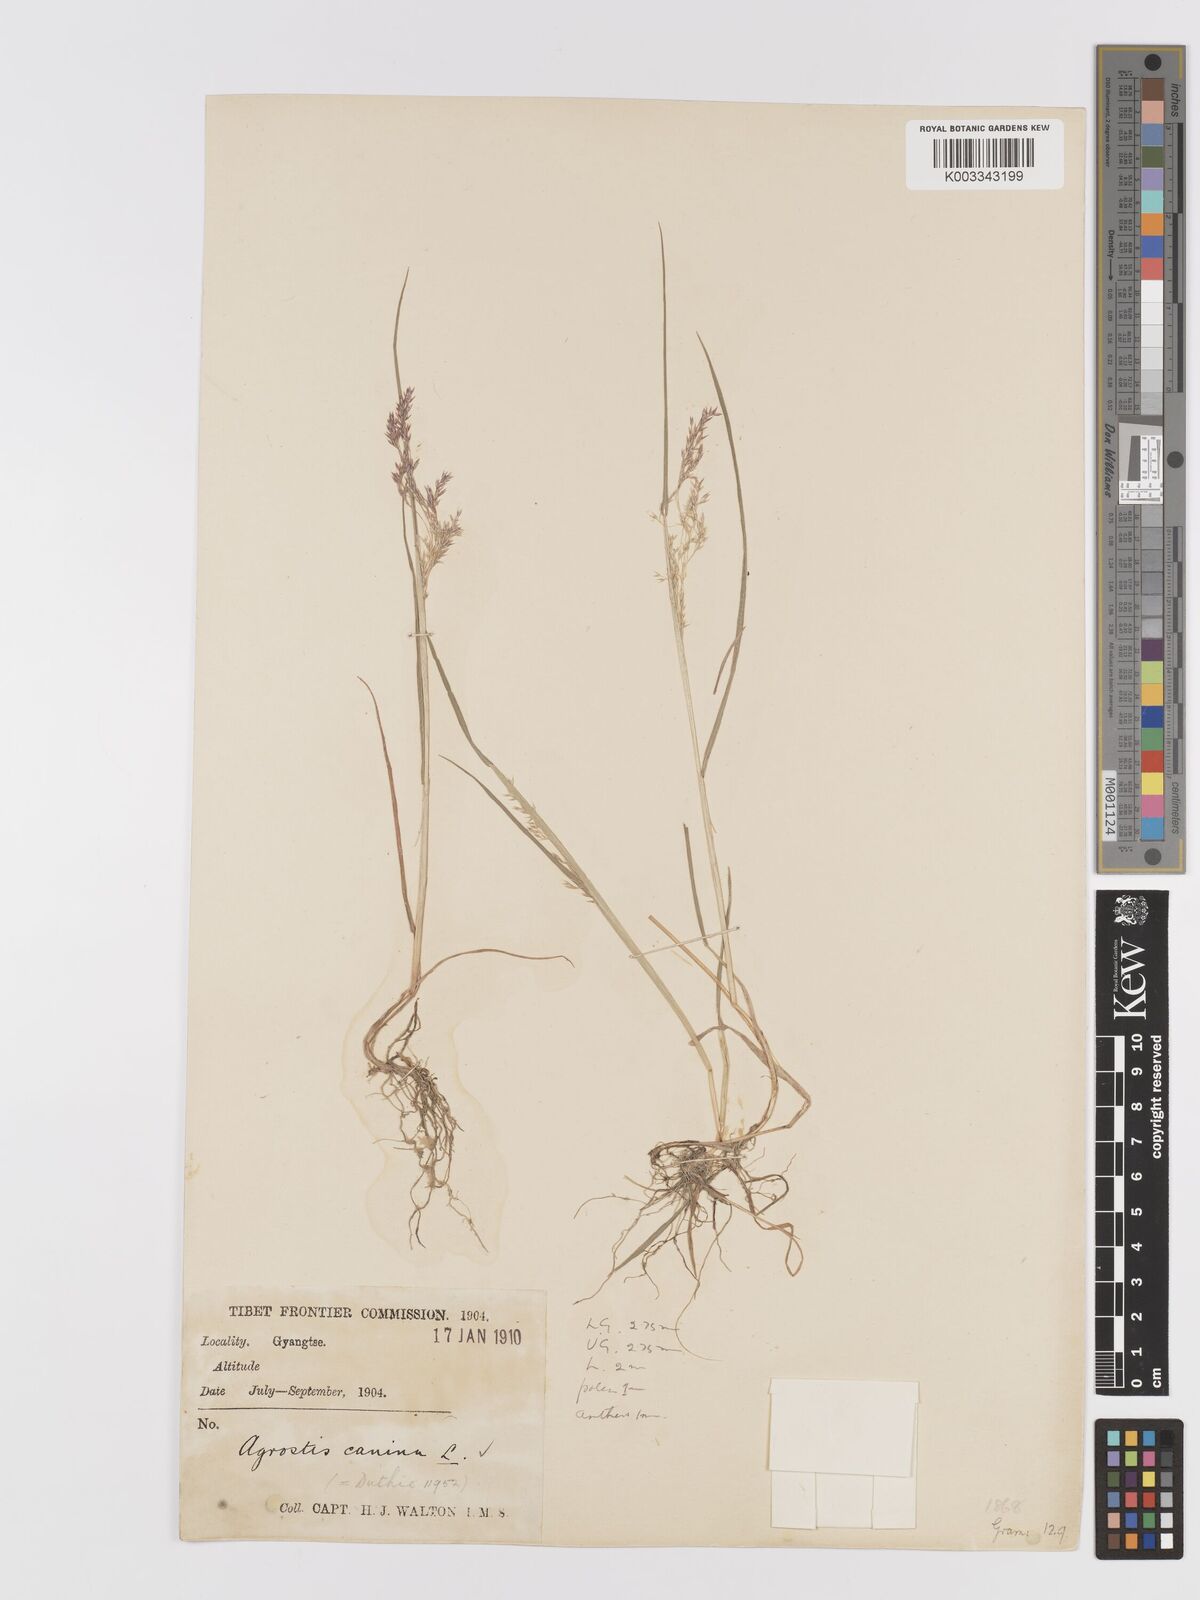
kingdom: Plantae
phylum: Tracheophyta
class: Liliopsida
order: Poales
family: Poaceae
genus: Agrostis
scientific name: Agrostis canina
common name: Velvet bent
